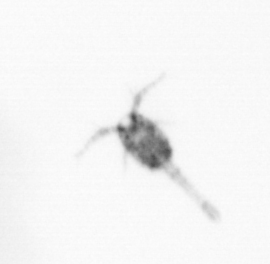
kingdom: Animalia
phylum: Arthropoda
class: Copepoda
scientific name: Copepoda
